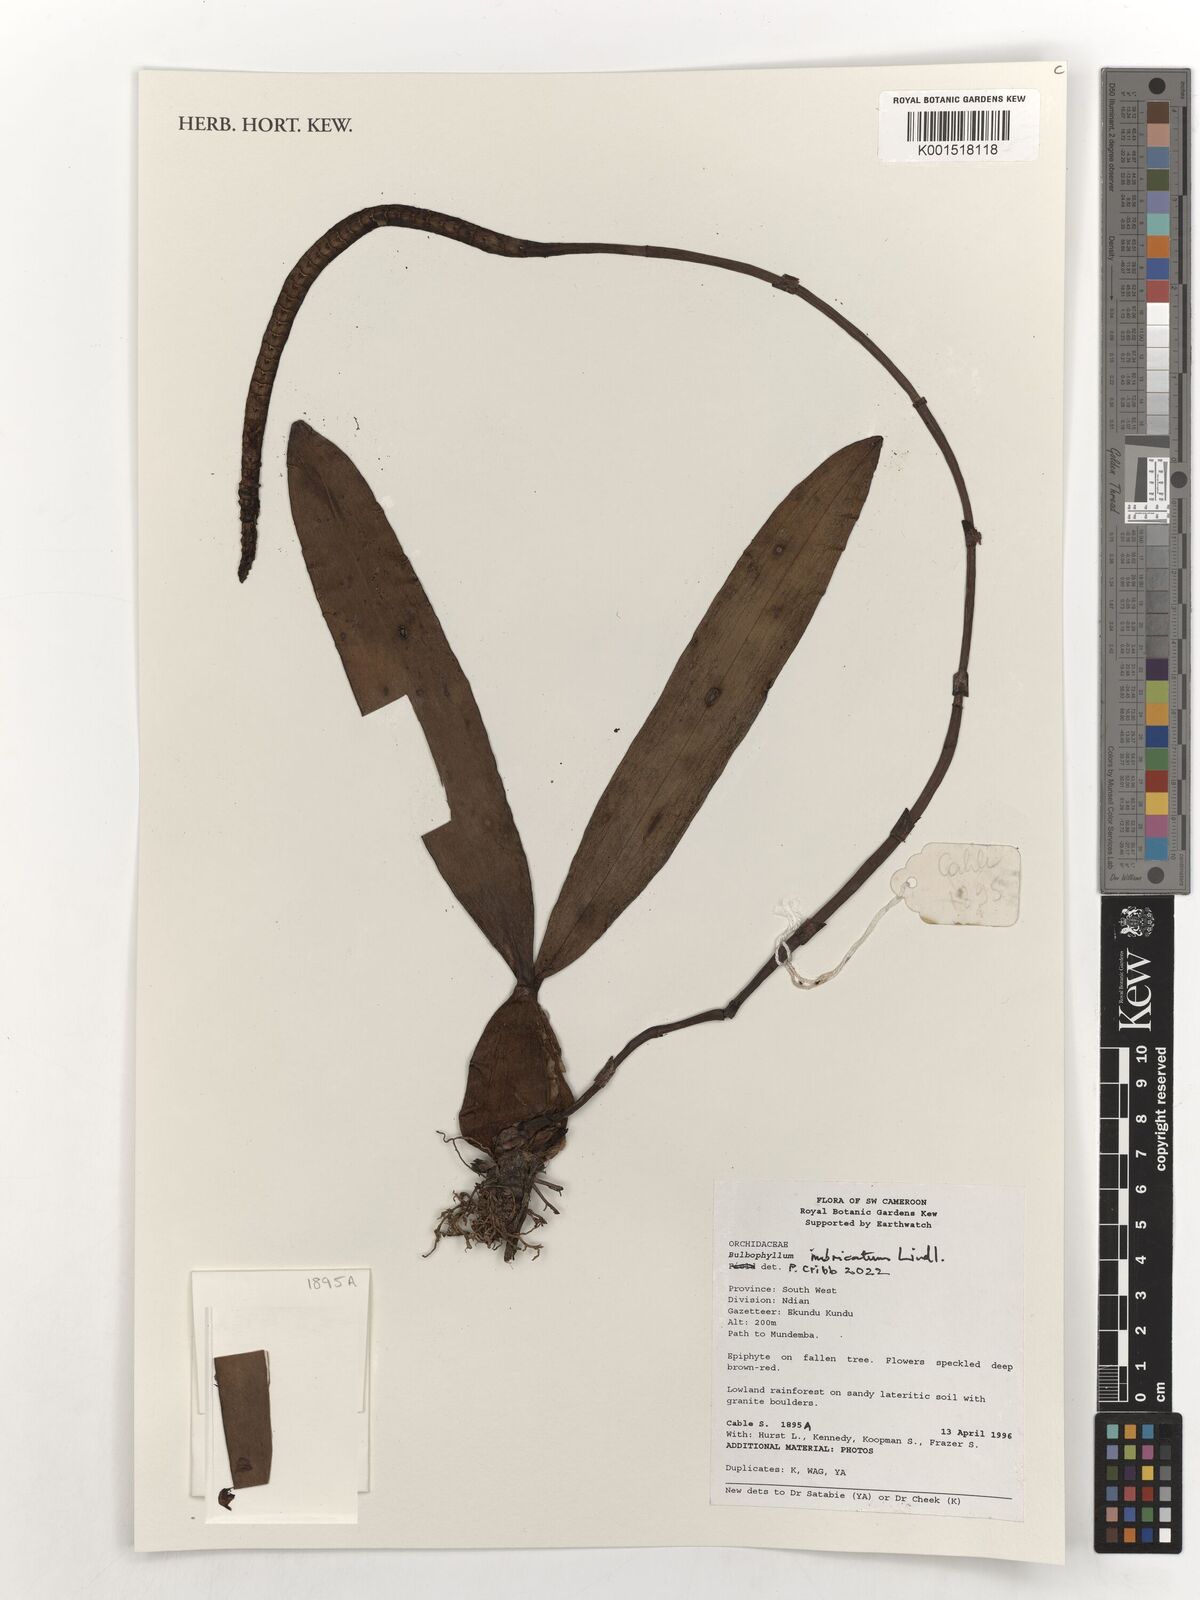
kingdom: Plantae
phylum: Tracheophyta
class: Liliopsida
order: Asparagales
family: Orchidaceae
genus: Bulbophyllum
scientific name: Bulbophyllum imbricatum
